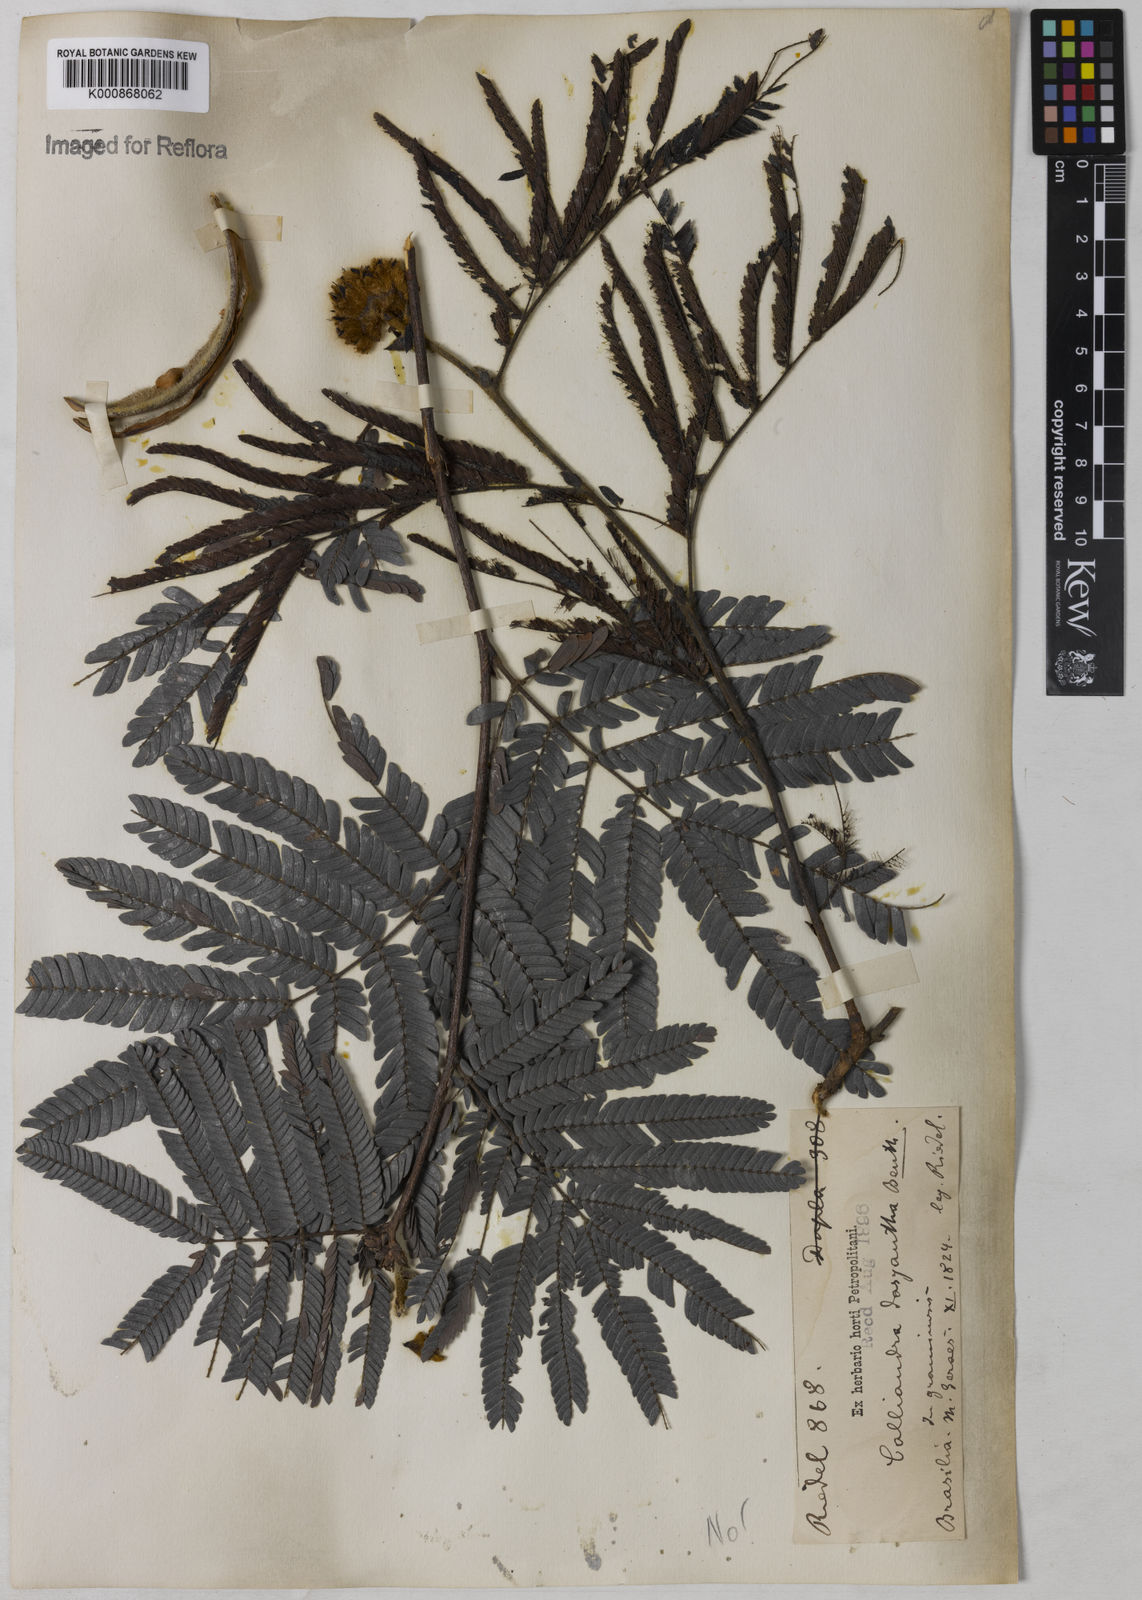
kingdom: Plantae
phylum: Tracheophyta
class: Magnoliopsida
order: Fabales
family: Fabaceae
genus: Calliandra
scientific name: Calliandra dysantha
